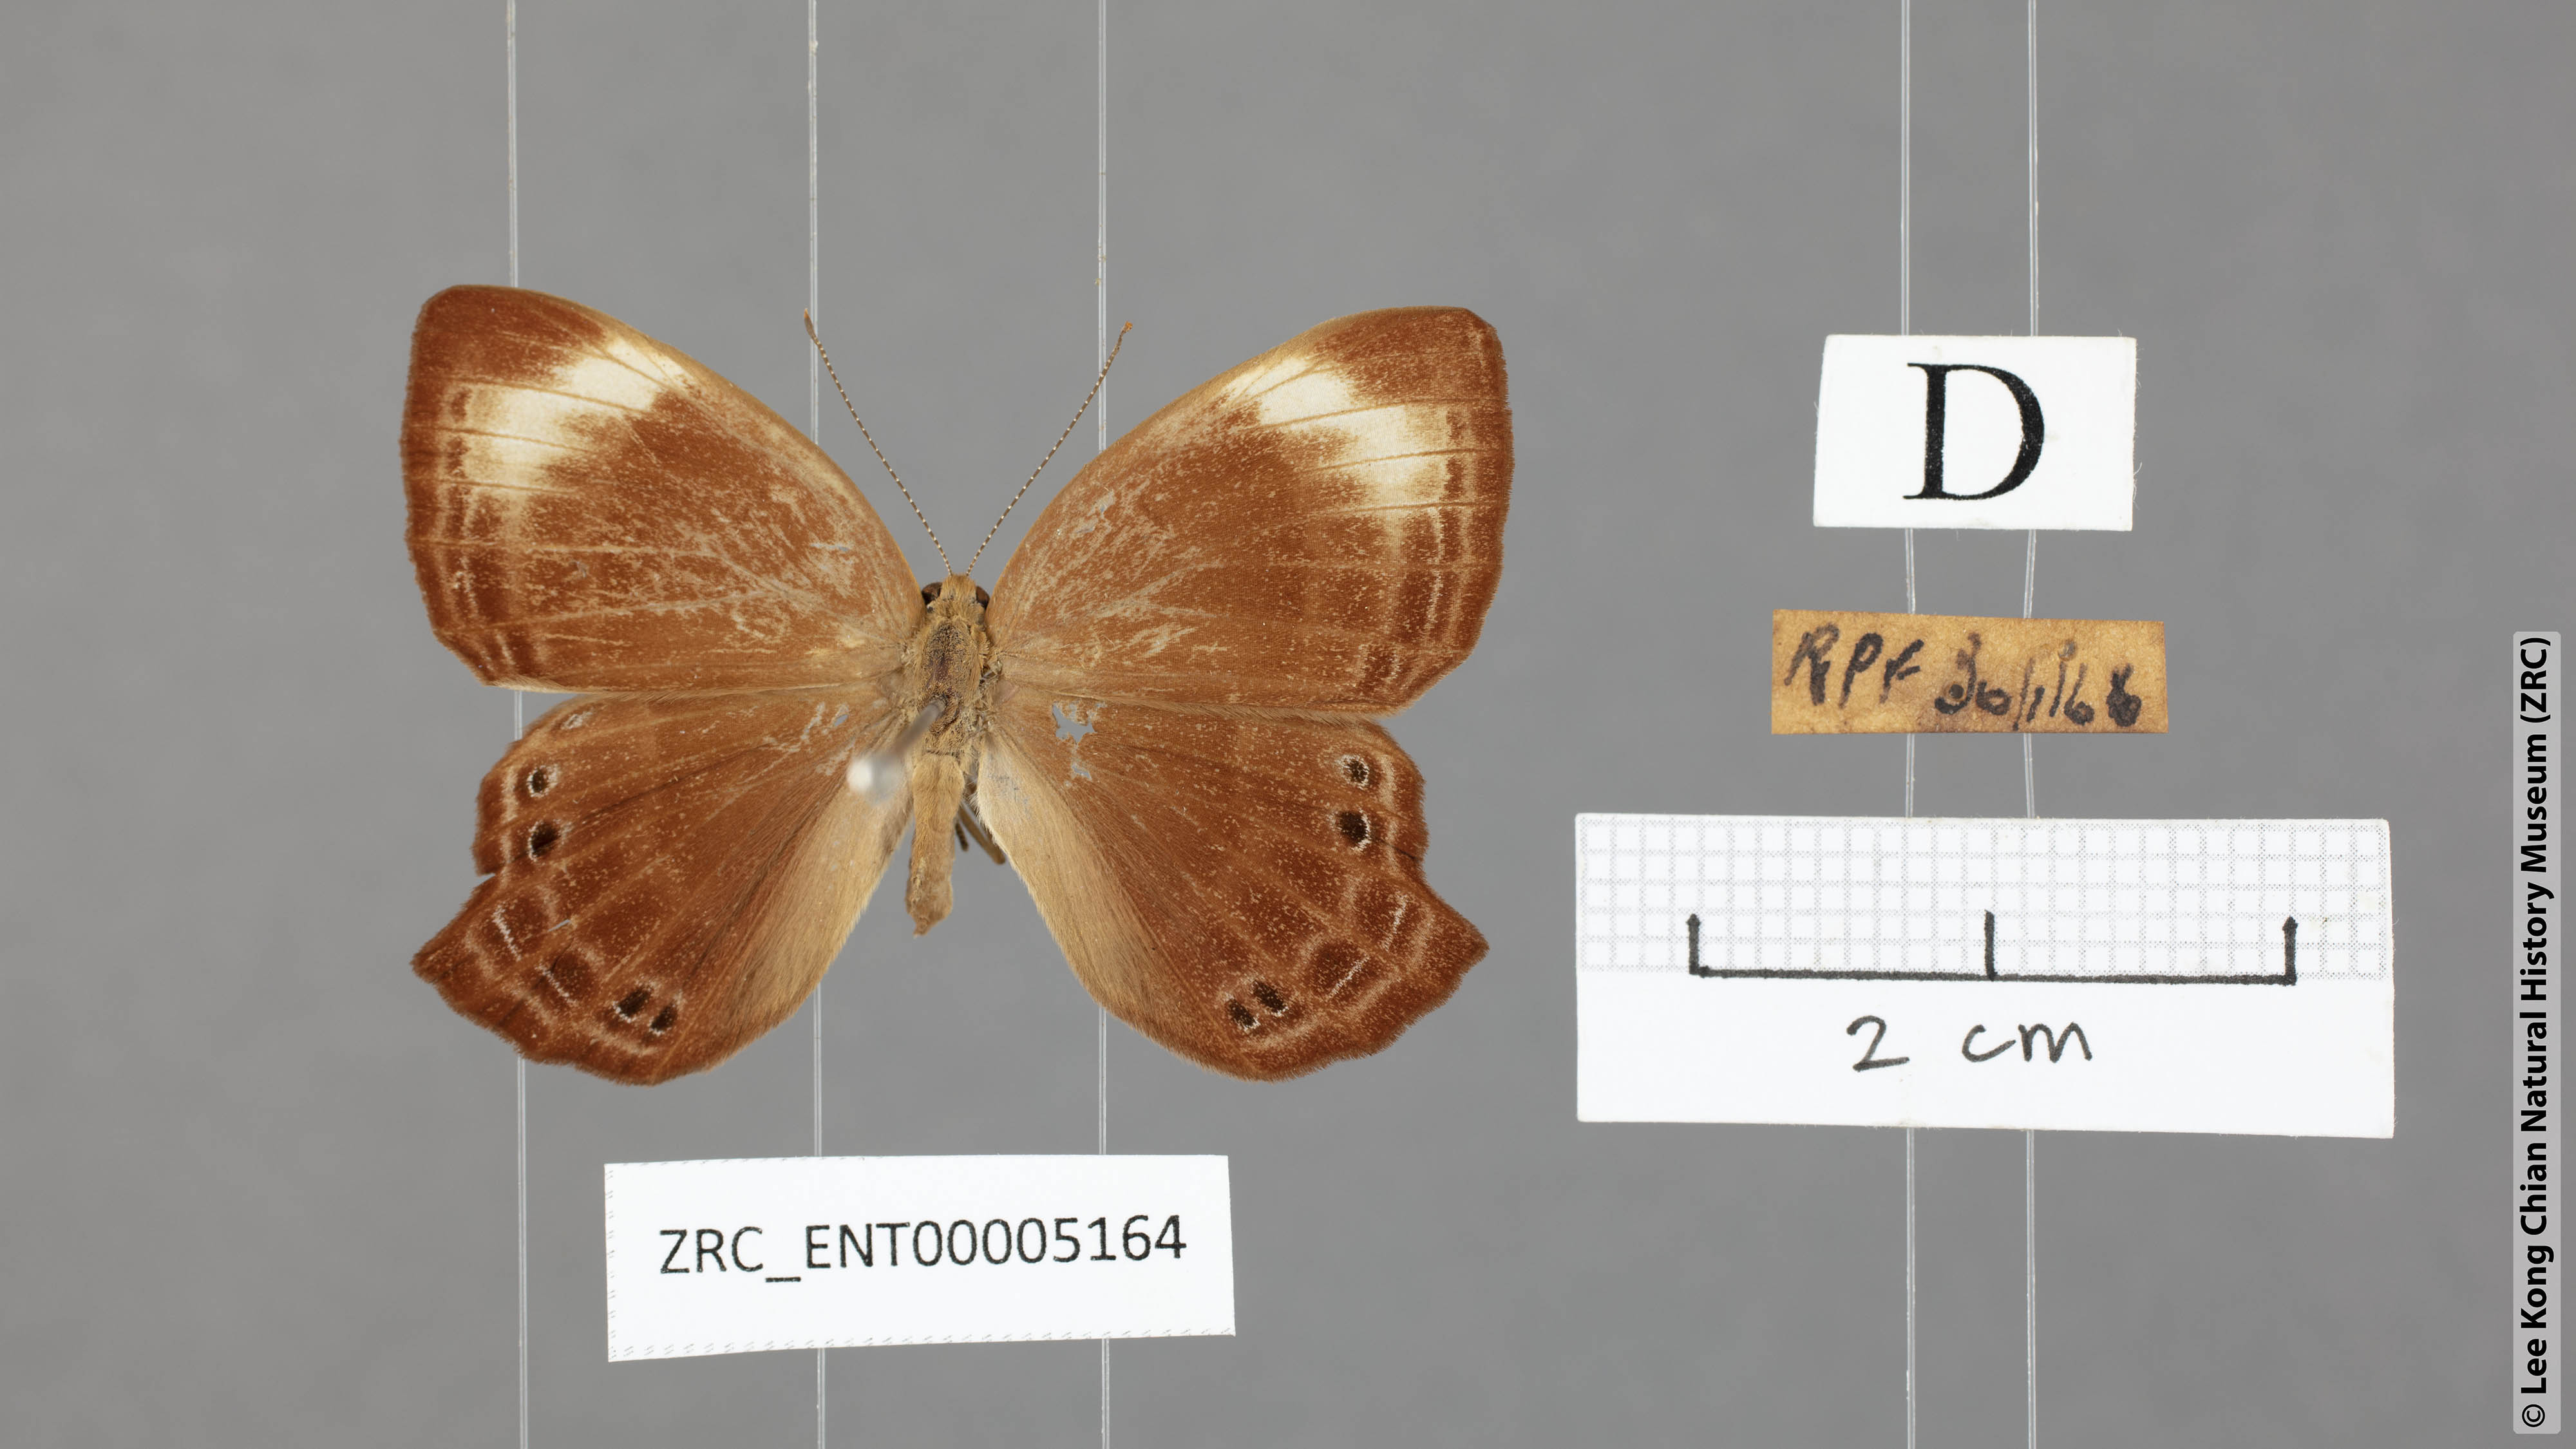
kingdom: Animalia
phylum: Arthropoda
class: Insecta
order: Lepidoptera
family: Lycaenidae
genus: Abisara
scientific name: Abisara kausambi
